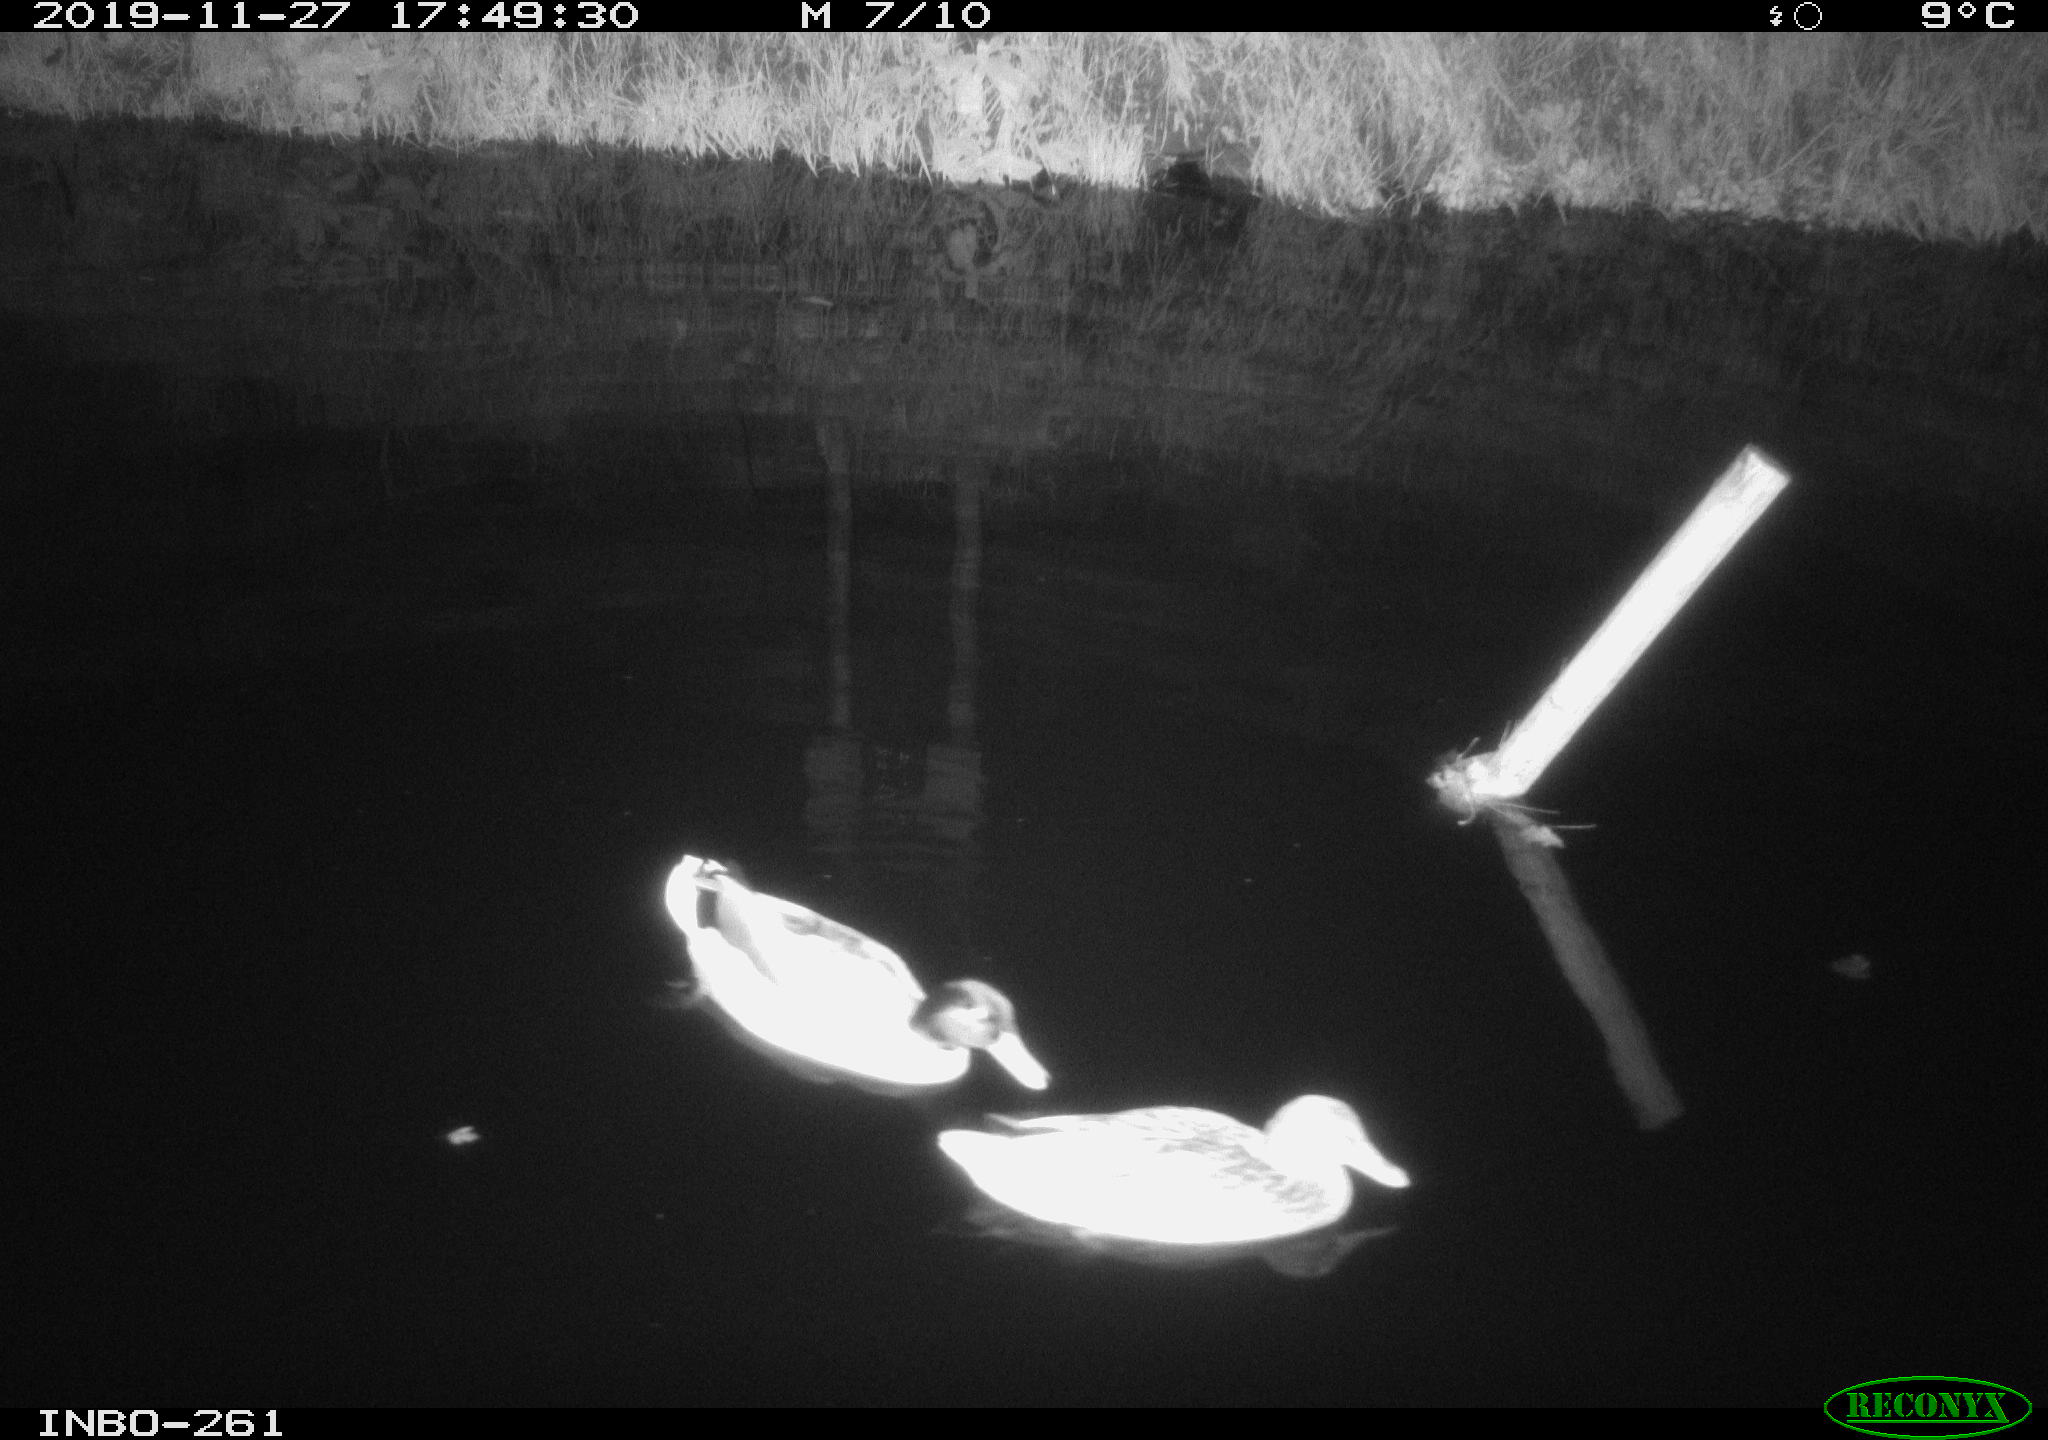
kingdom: Animalia
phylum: Chordata
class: Aves
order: Anseriformes
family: Anatidae
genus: Anas
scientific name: Anas platyrhynchos
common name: Mallard
